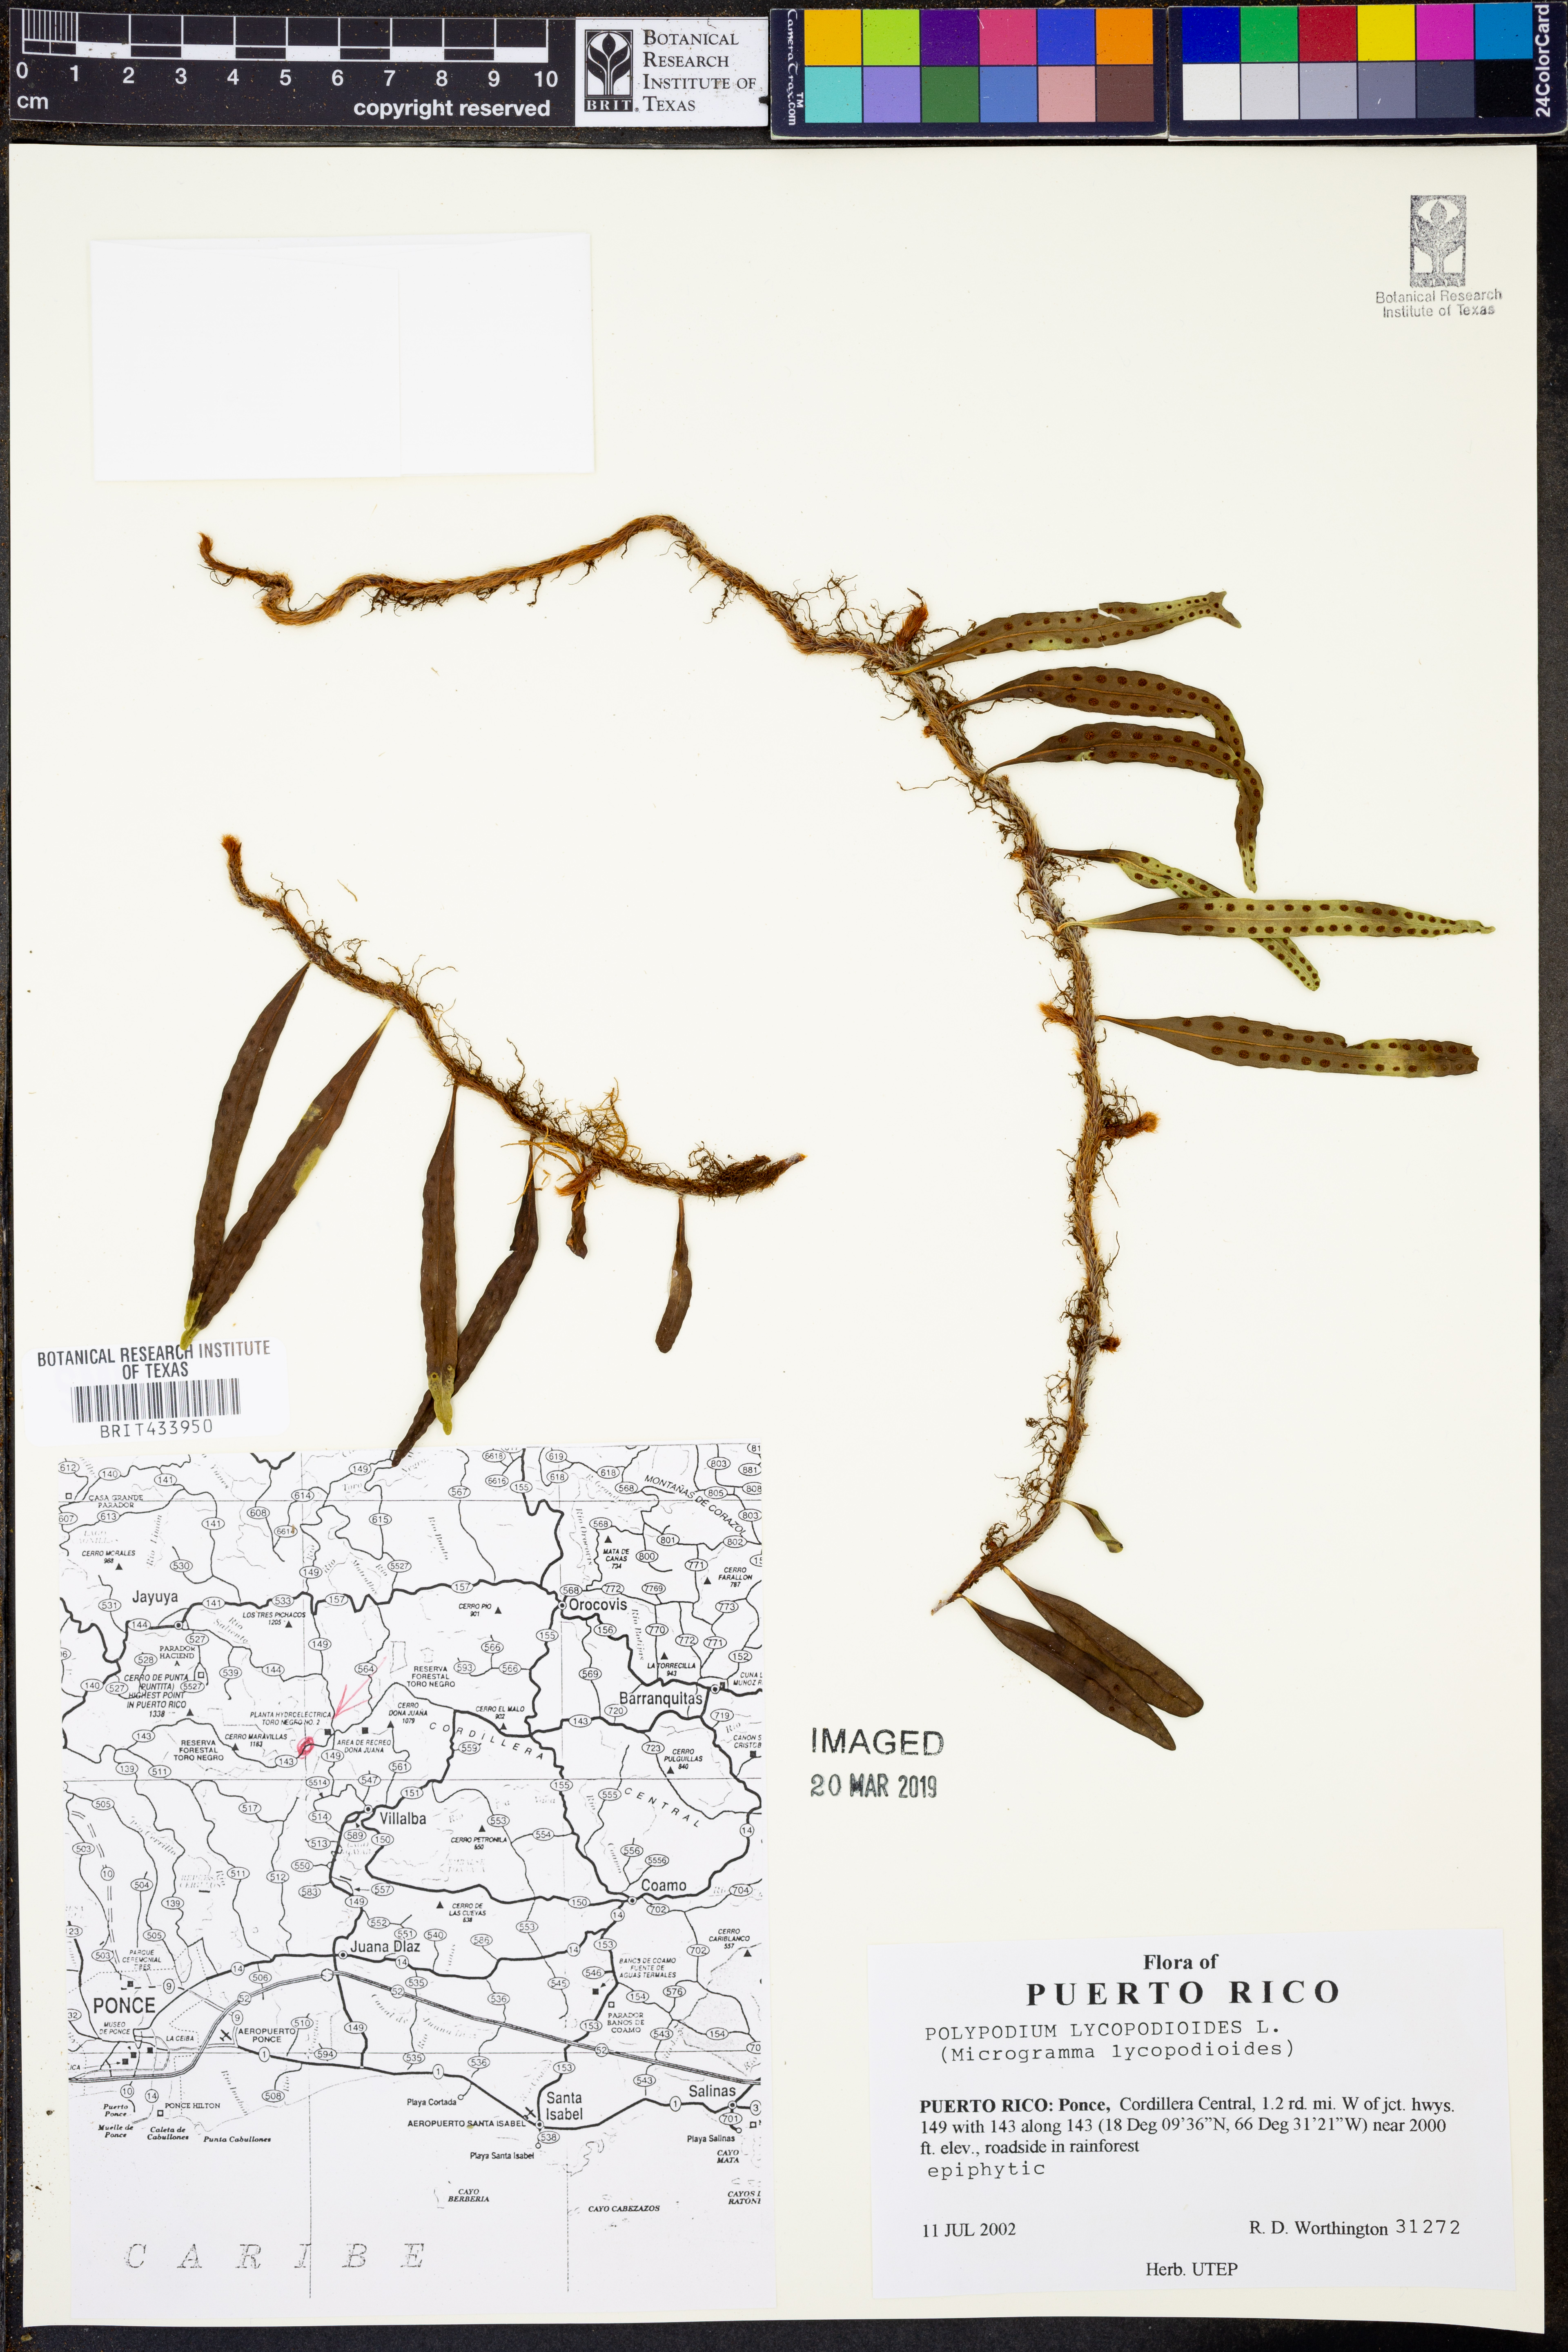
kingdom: Plantae
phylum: Tracheophyta
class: Polypodiopsida
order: Polypodiales
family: Polypodiaceae
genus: Microgramma
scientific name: Microgramma lycopodioides
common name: Bastard catclaw
